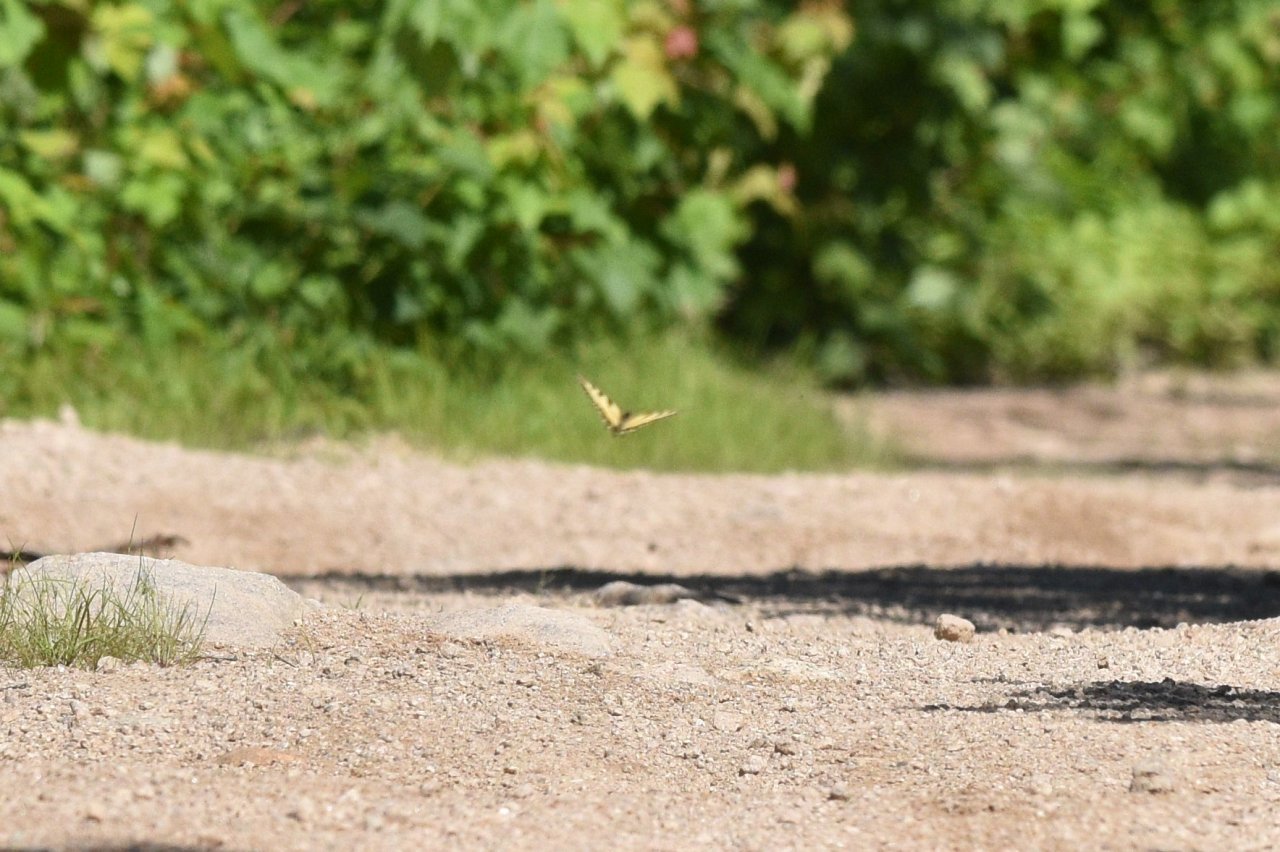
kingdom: Animalia
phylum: Arthropoda
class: Insecta
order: Lepidoptera
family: Papilionidae
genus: Pterourus
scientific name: Pterourus canadensis
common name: Canadian Tiger Swallowtail
